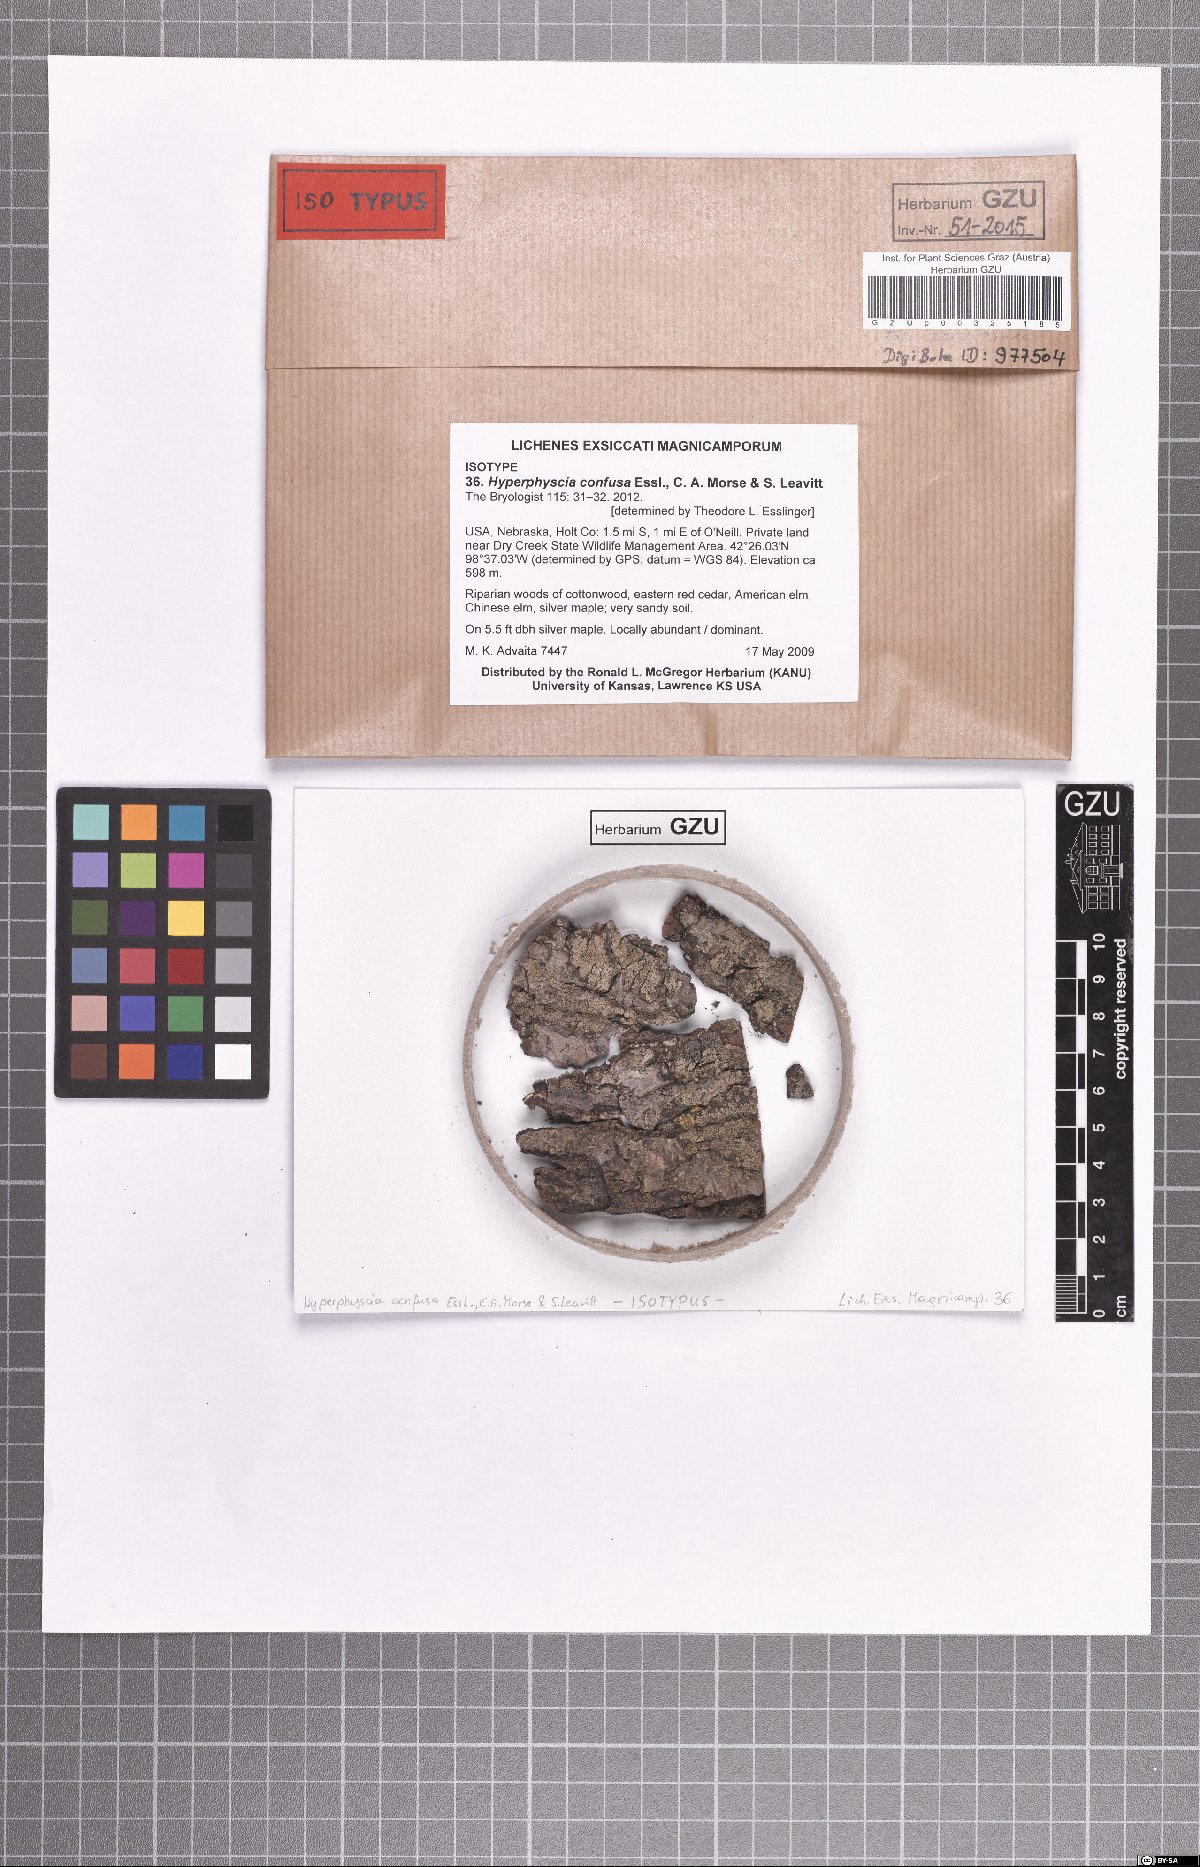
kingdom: Fungi
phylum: Ascomycota
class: Lecanoromycetes
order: Caliciales
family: Physciaceae
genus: Hyperphyscia
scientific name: Hyperphyscia confusa
